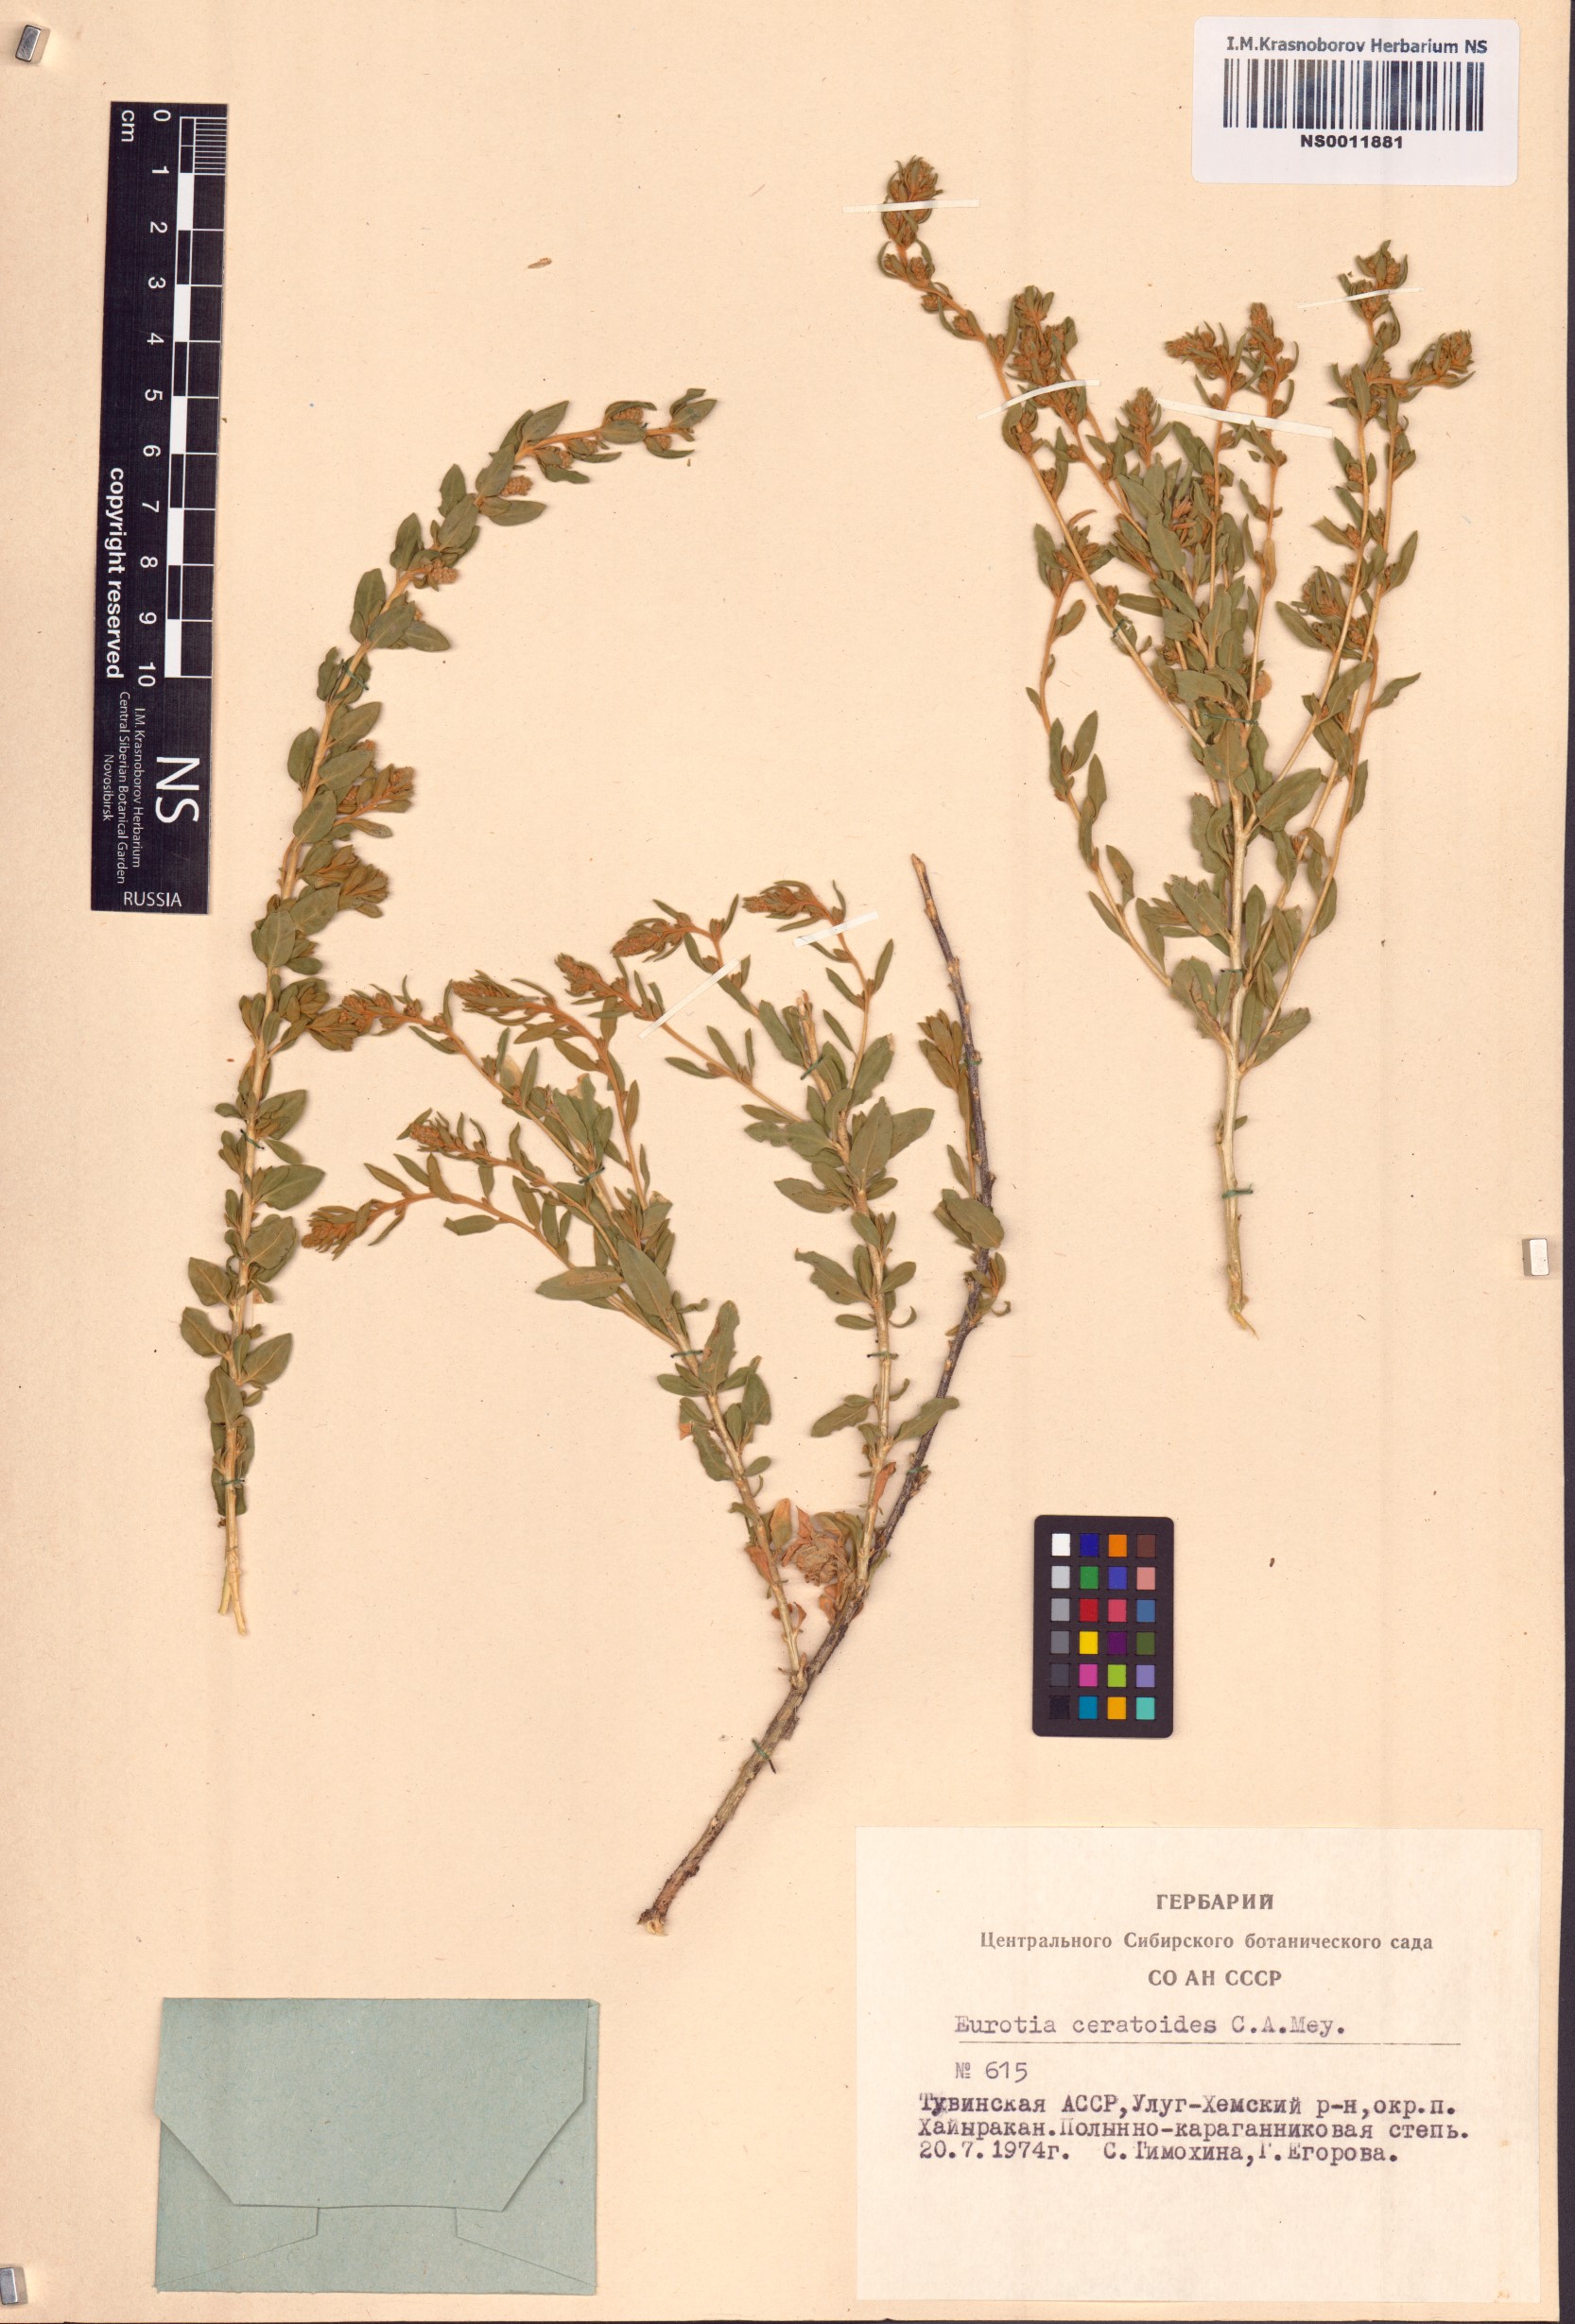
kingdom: Plantae
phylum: Tracheophyta
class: Magnoliopsida
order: Caryophyllales
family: Amaranthaceae
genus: Krascheninnikovia
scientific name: Krascheninnikovia ceratoides
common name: Pamirian winterfat
